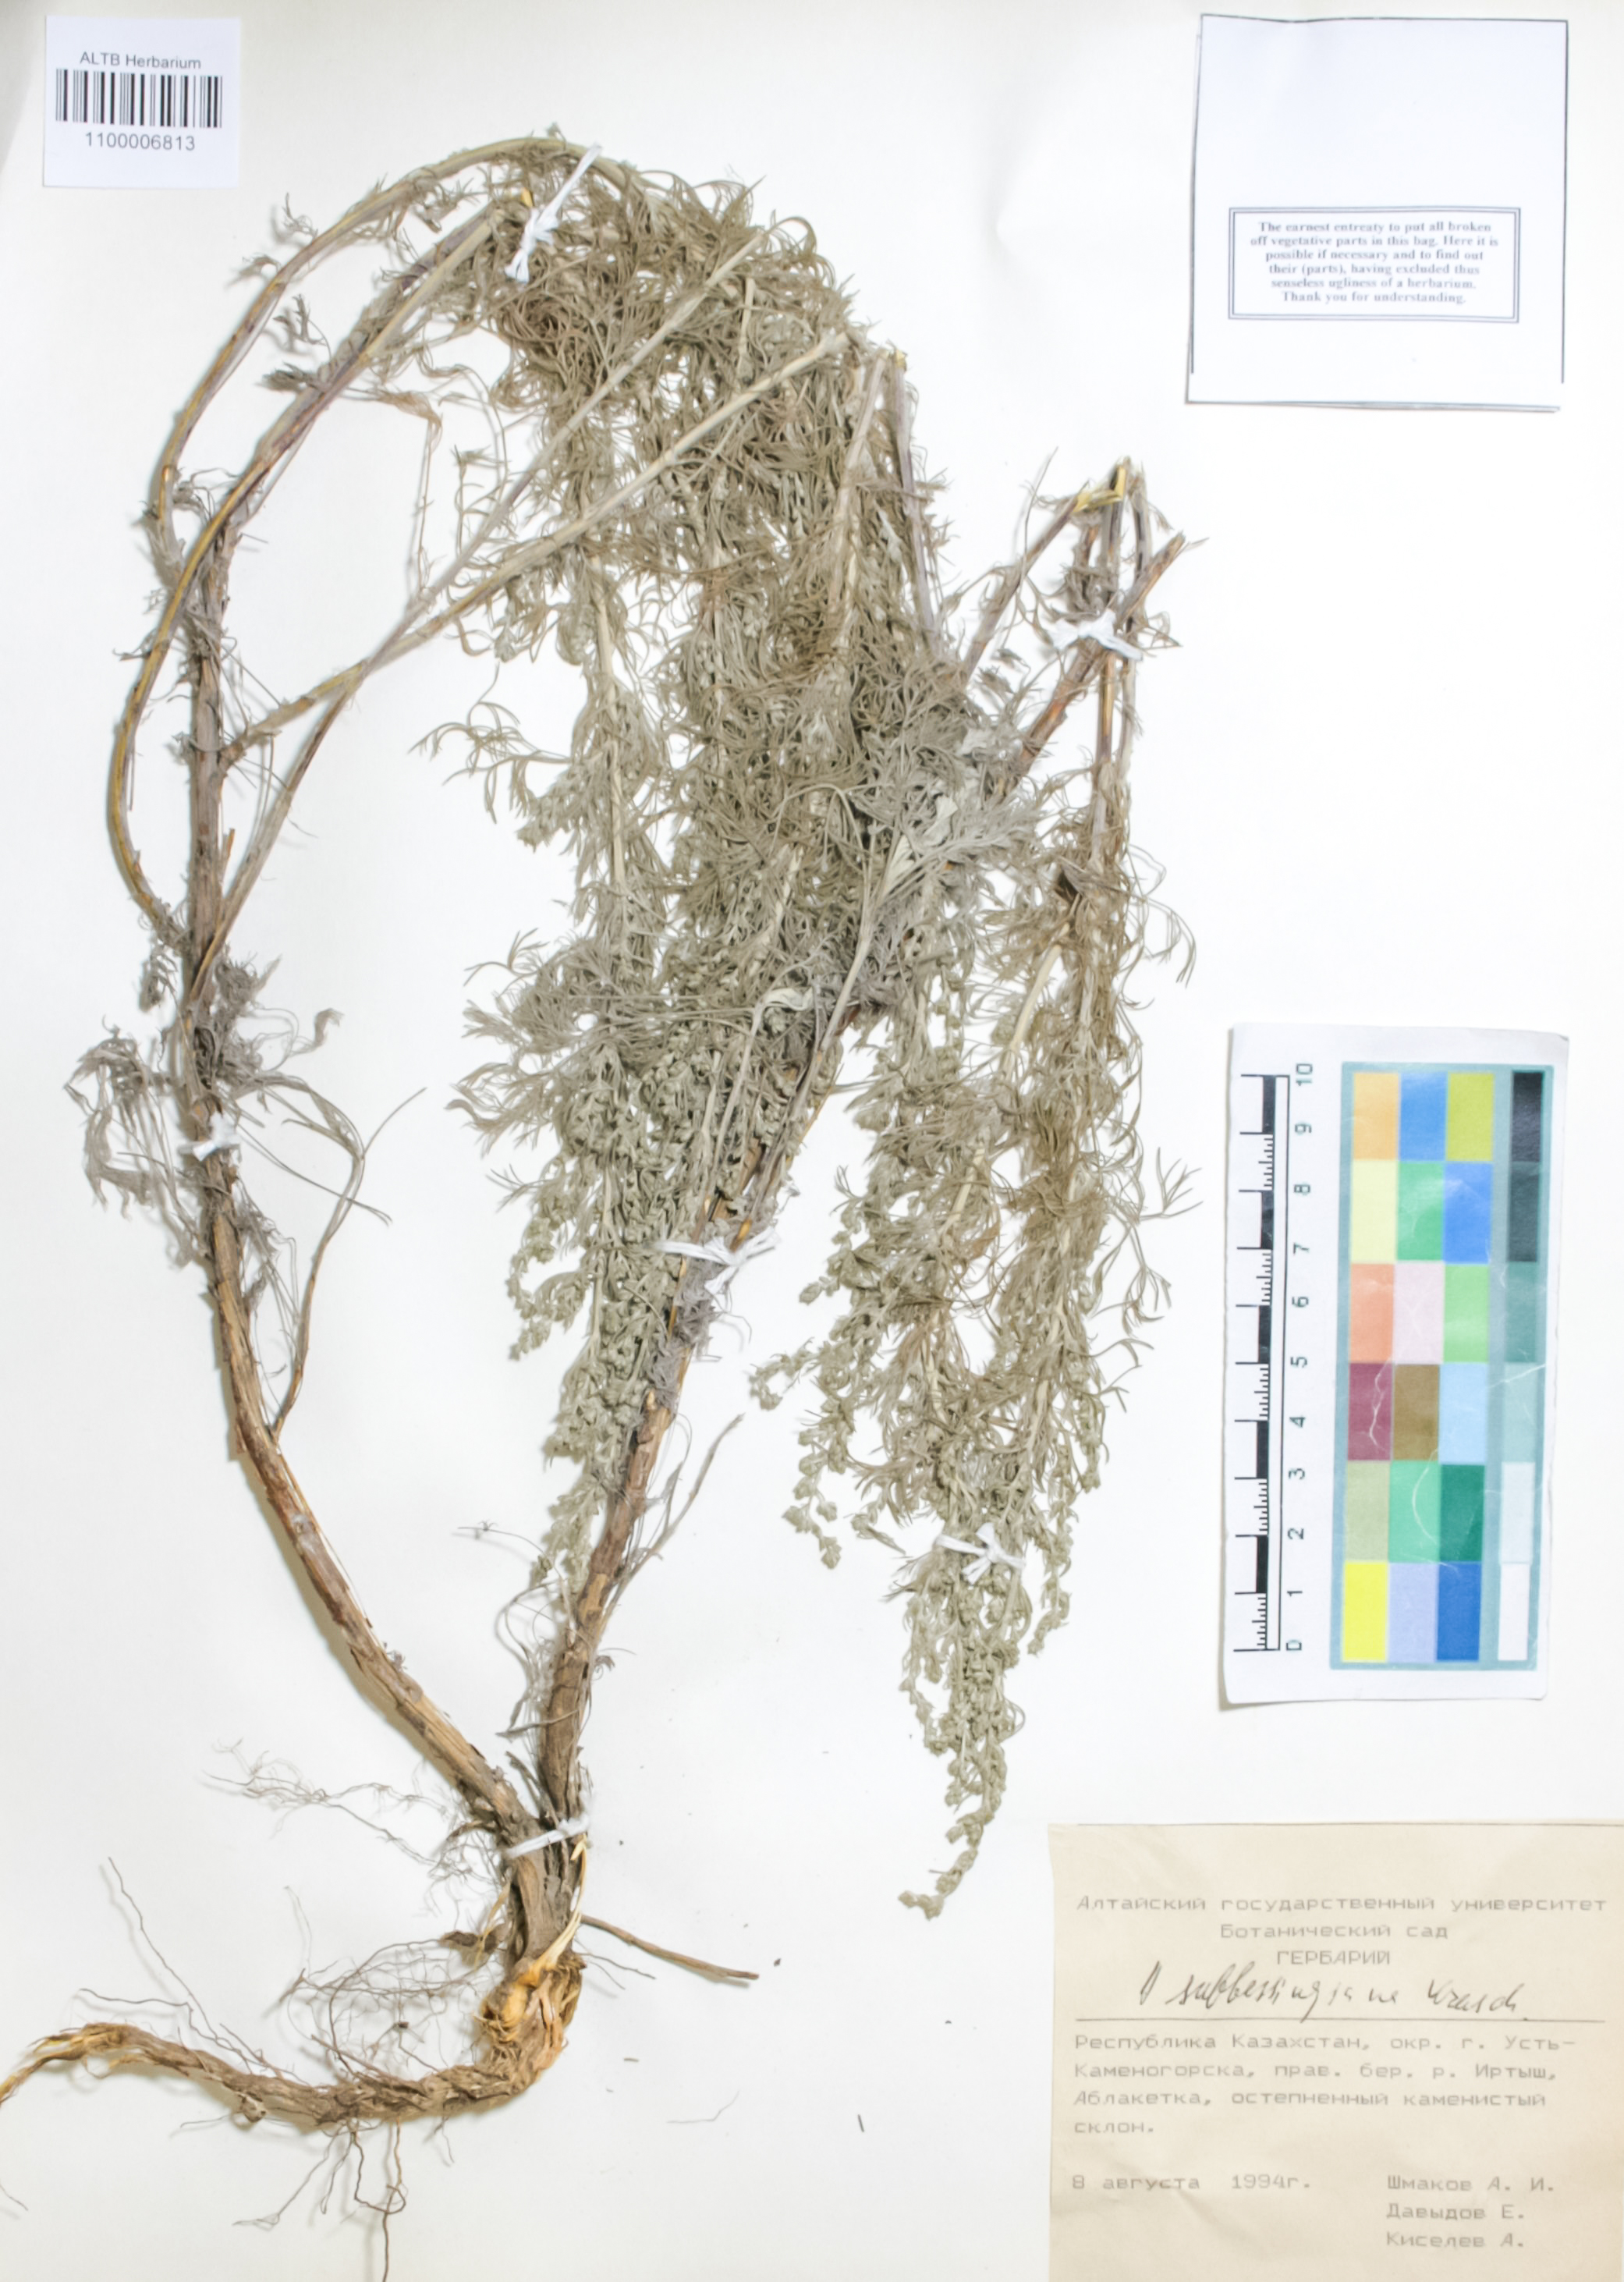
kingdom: Plantae
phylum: Tracheophyta
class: Magnoliopsida
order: Asterales
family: Asteraceae
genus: Artemisia
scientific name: Artemisia sublessingiana
